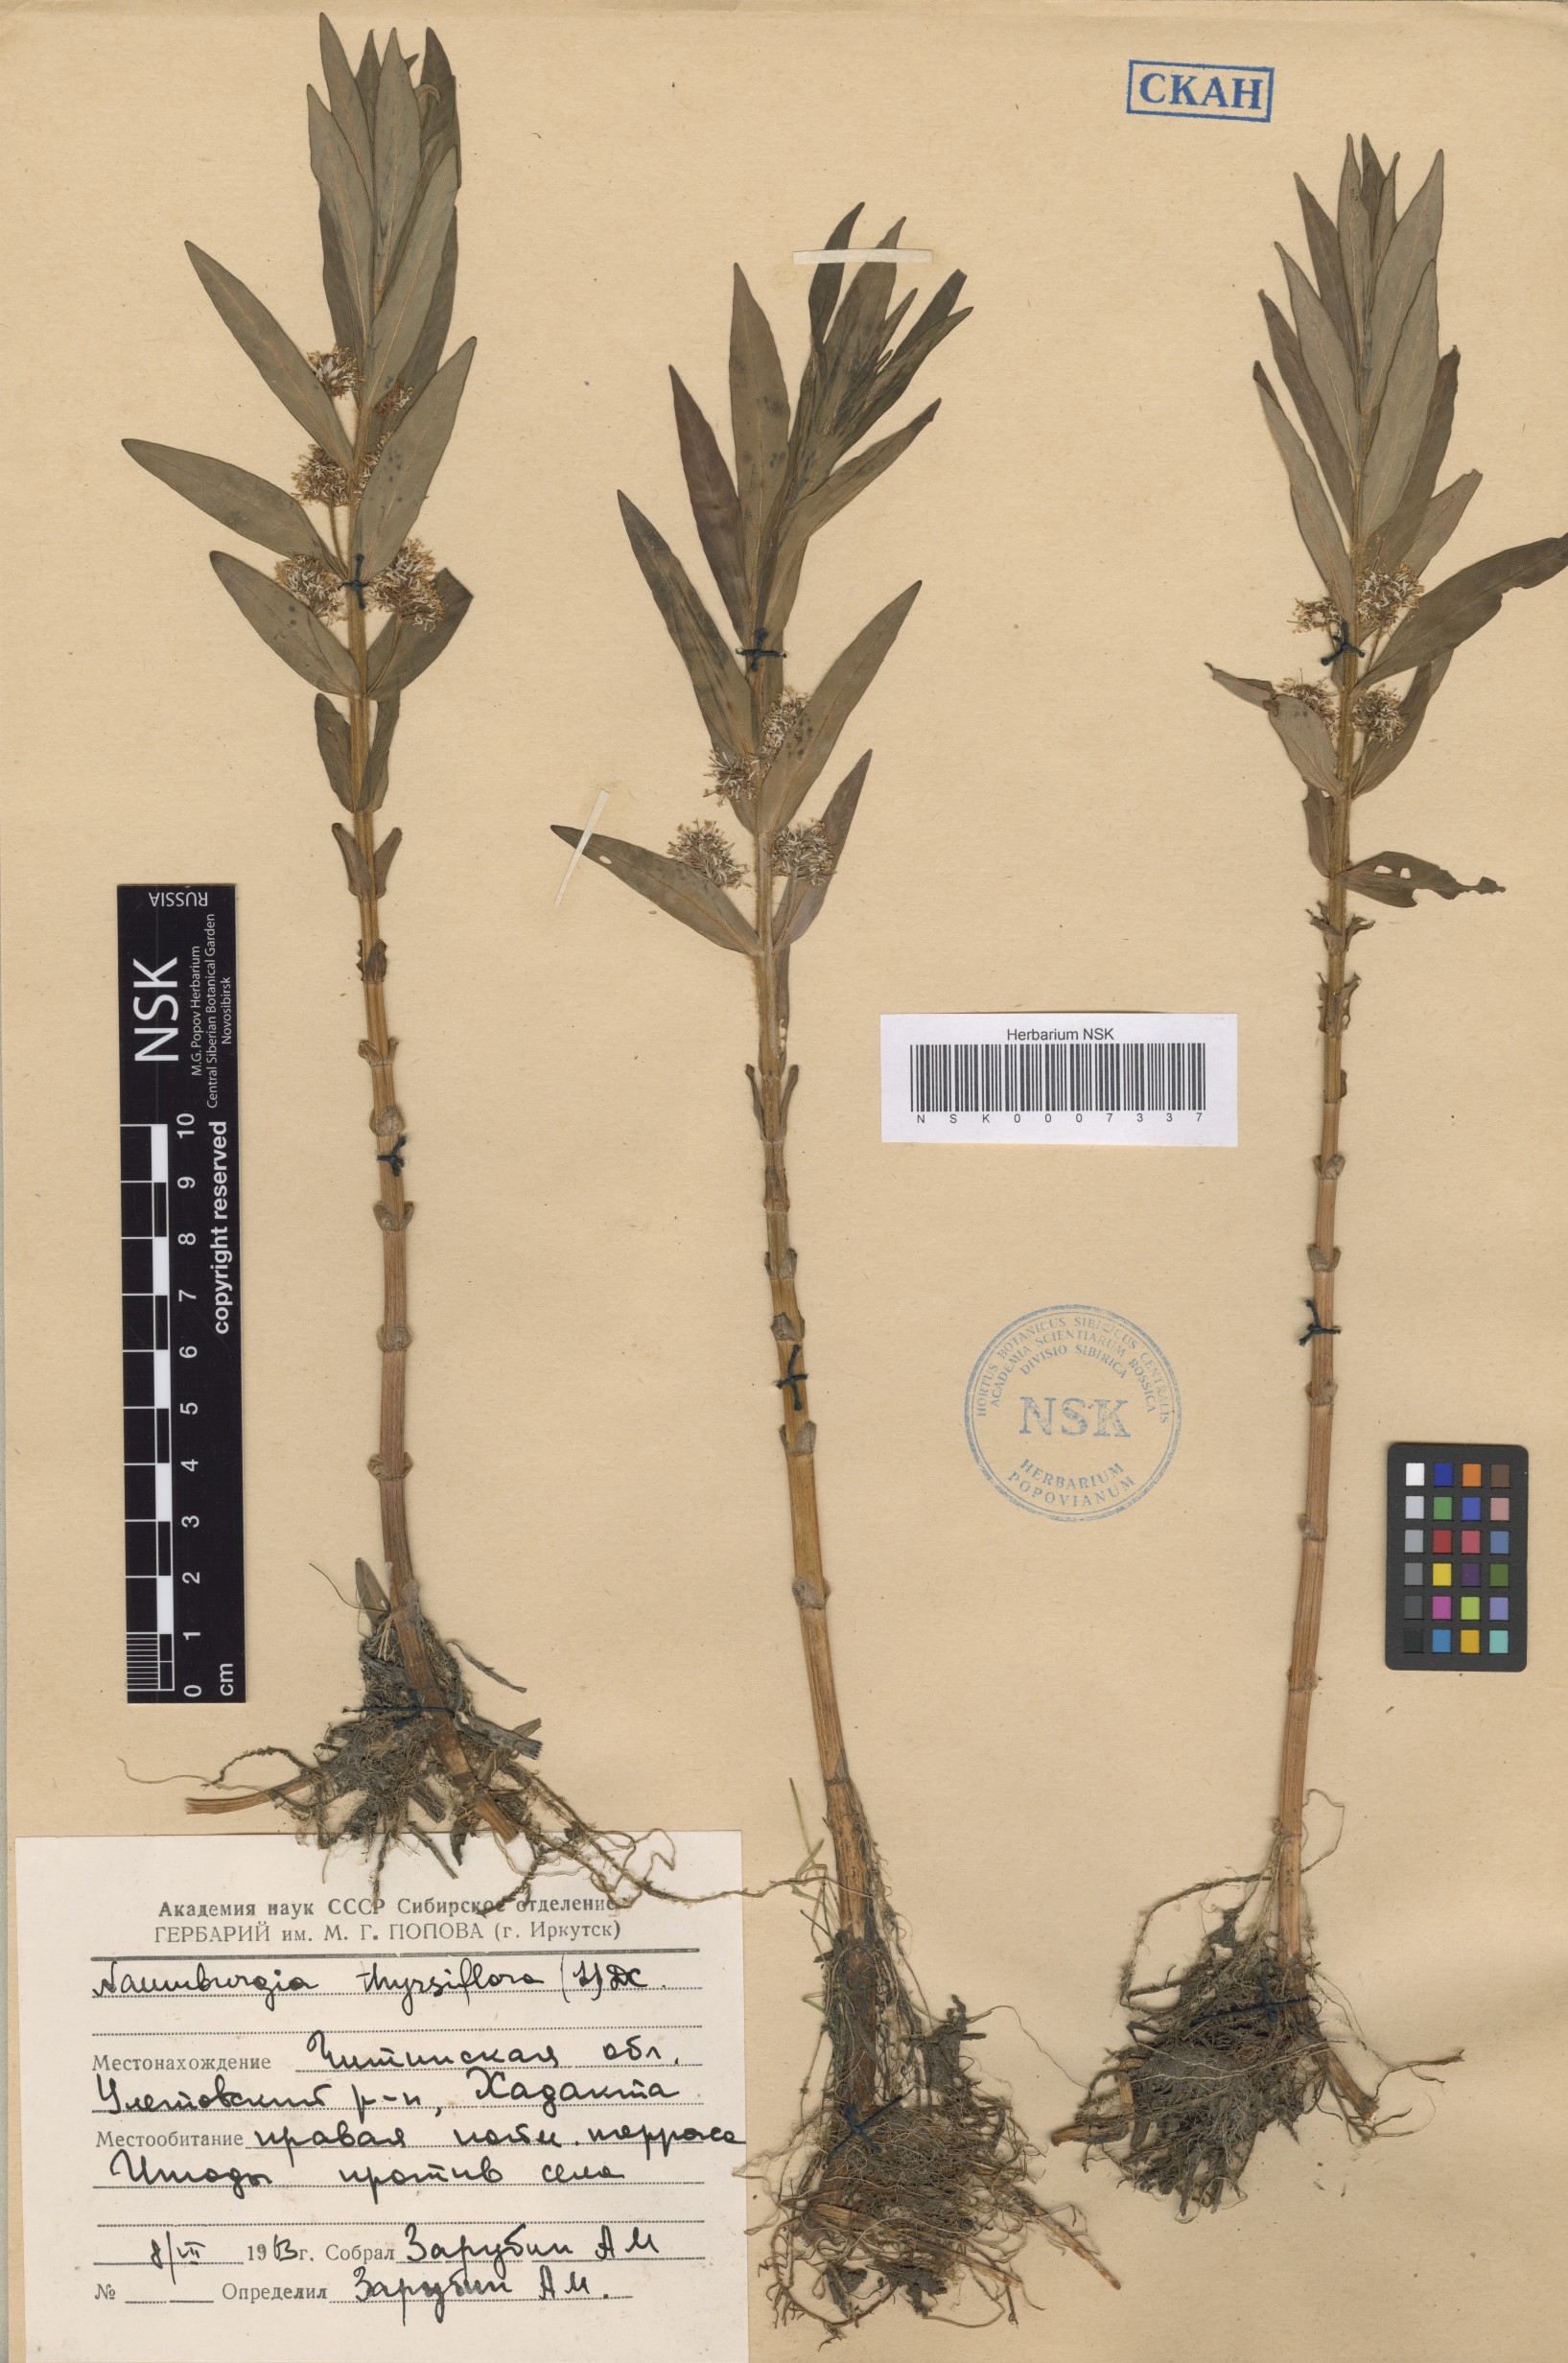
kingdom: Plantae
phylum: Tracheophyta
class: Magnoliopsida
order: Ericales
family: Primulaceae
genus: Lysimachia
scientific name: Lysimachia thyrsiflora
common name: Tufted loosestrife
